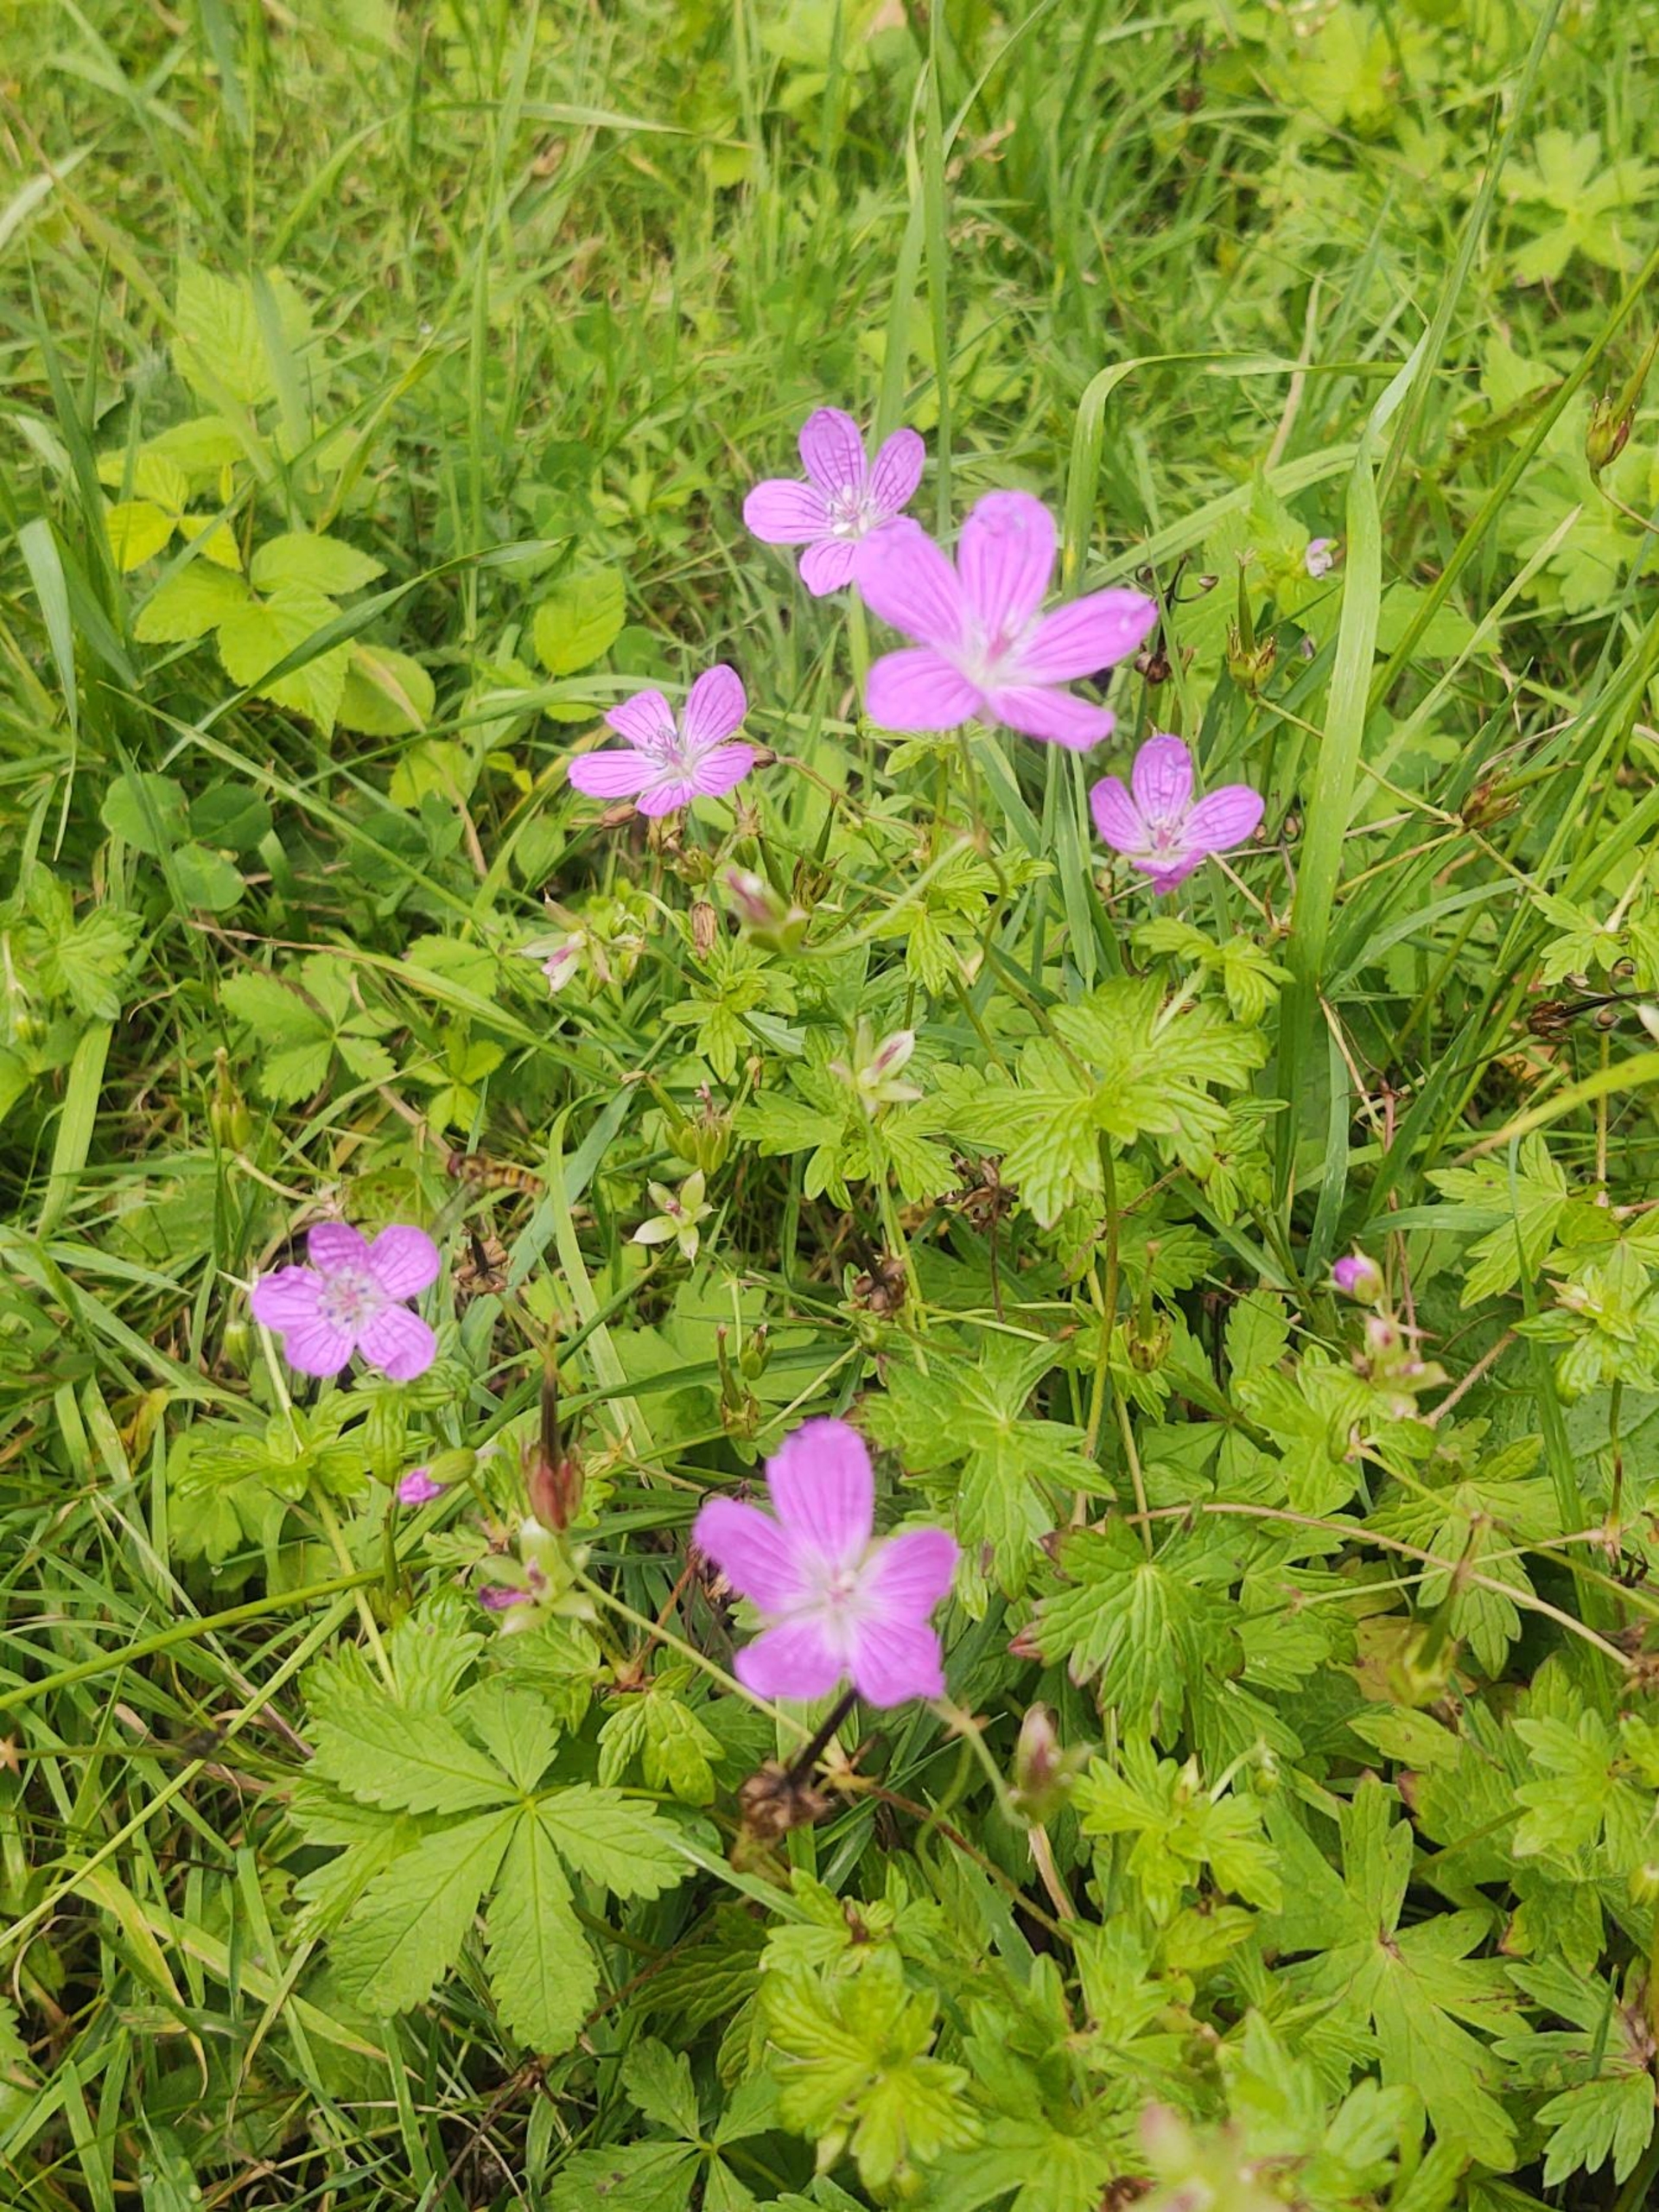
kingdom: Plantae
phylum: Tracheophyta
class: Magnoliopsida
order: Geraniales
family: Geraniaceae
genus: Geranium
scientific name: Geranium palustre
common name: Kær-storkenæb
